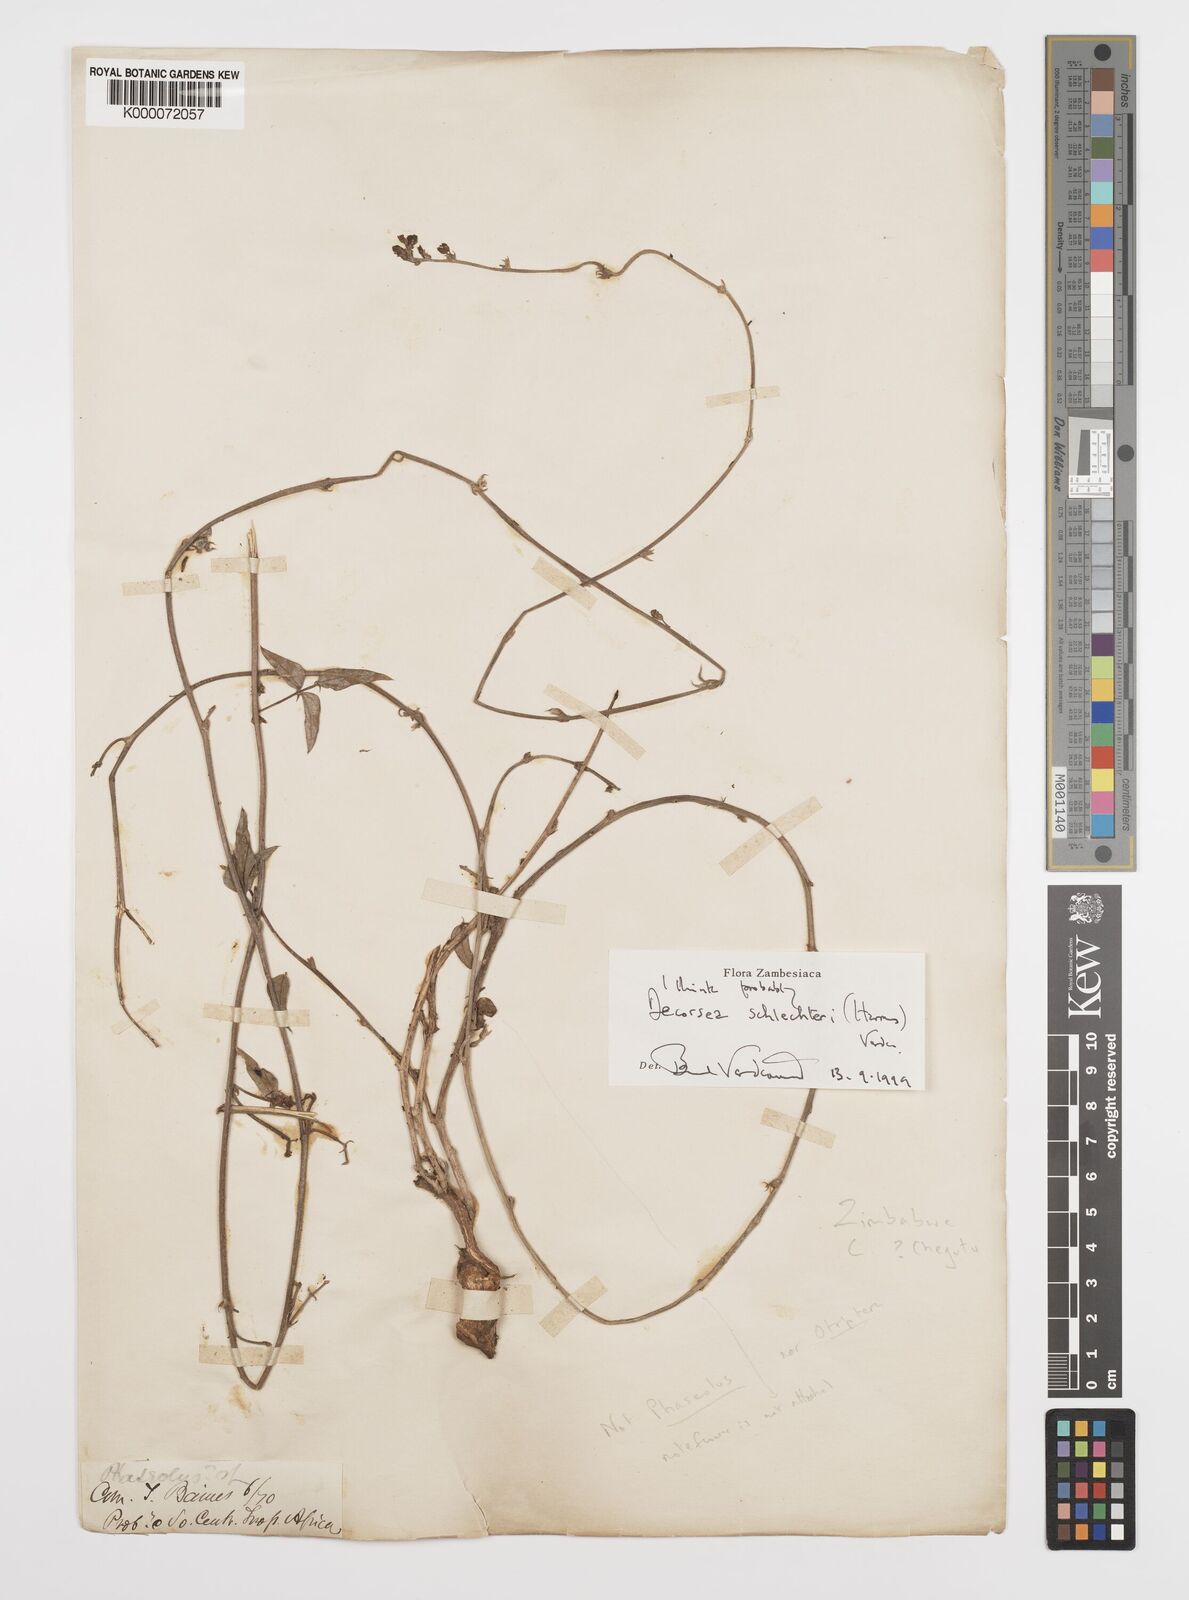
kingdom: Plantae
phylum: Tracheophyta
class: Magnoliopsida
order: Fabales
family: Fabaceae
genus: Decorsea
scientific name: Decorsea schlechteri
